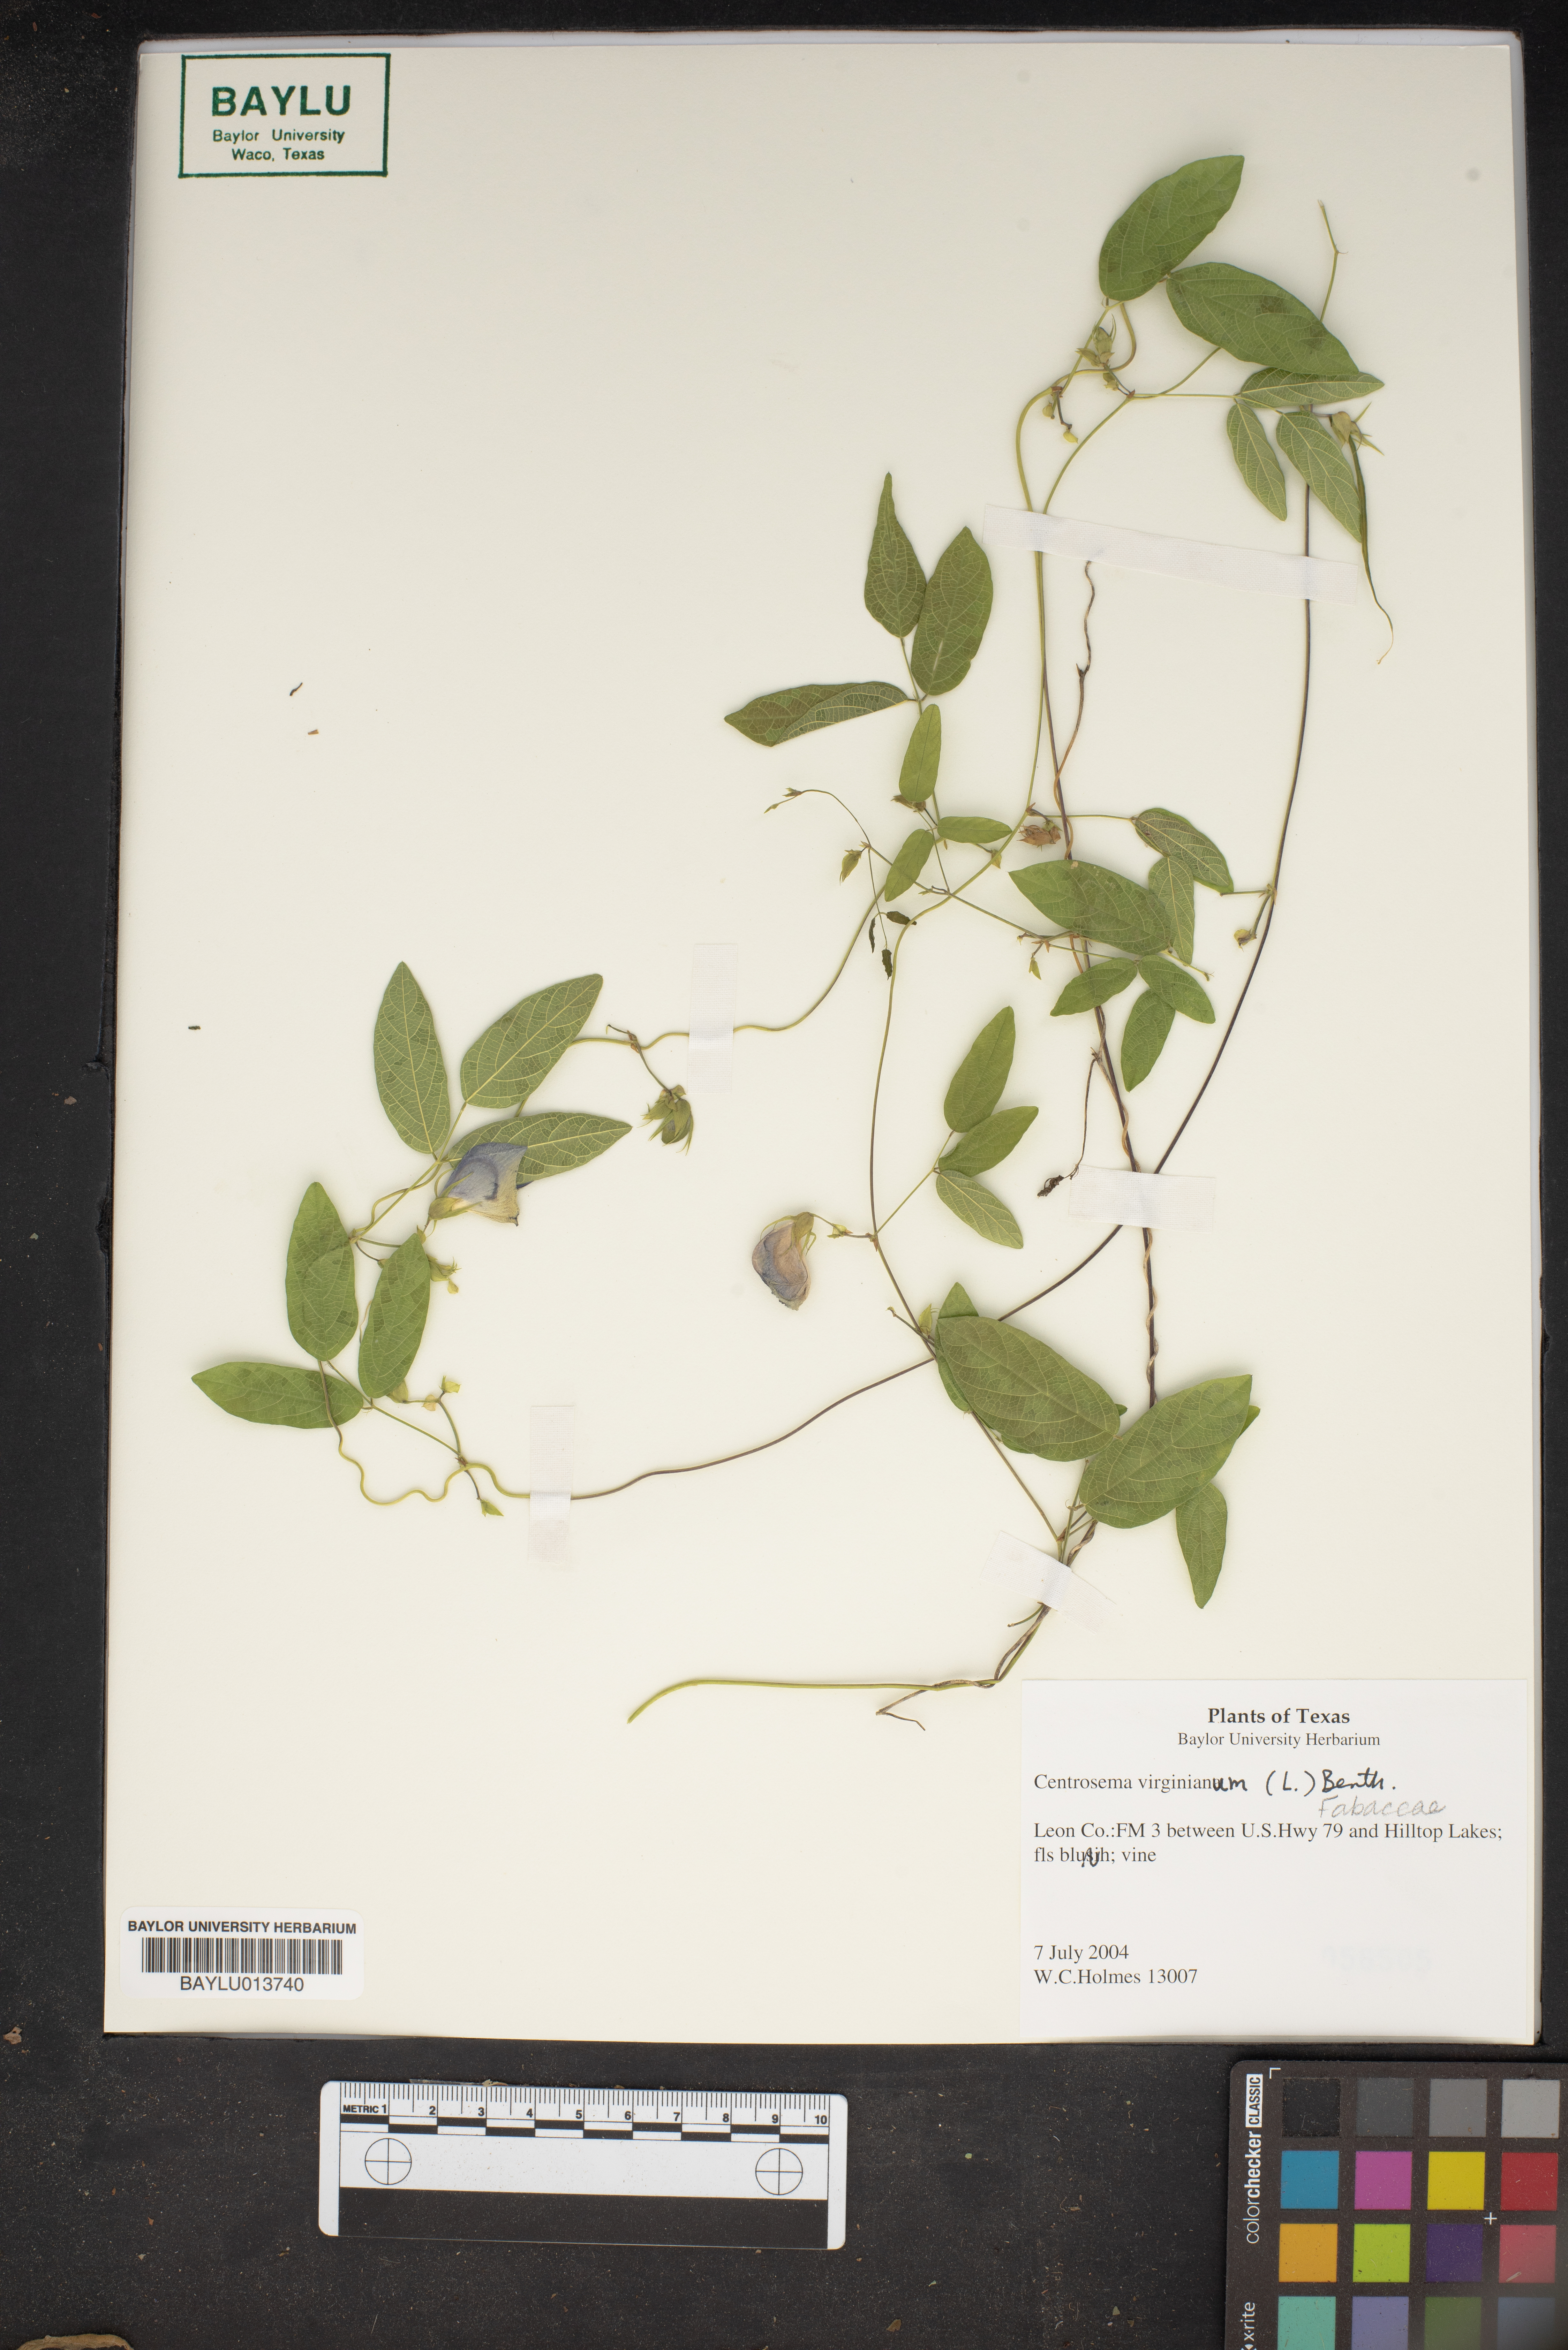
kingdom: Plantae
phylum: Tracheophyta
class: Magnoliopsida
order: Fabales
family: Fabaceae
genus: Centrosema
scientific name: Centrosema virginianum
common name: Butterfly-pea
